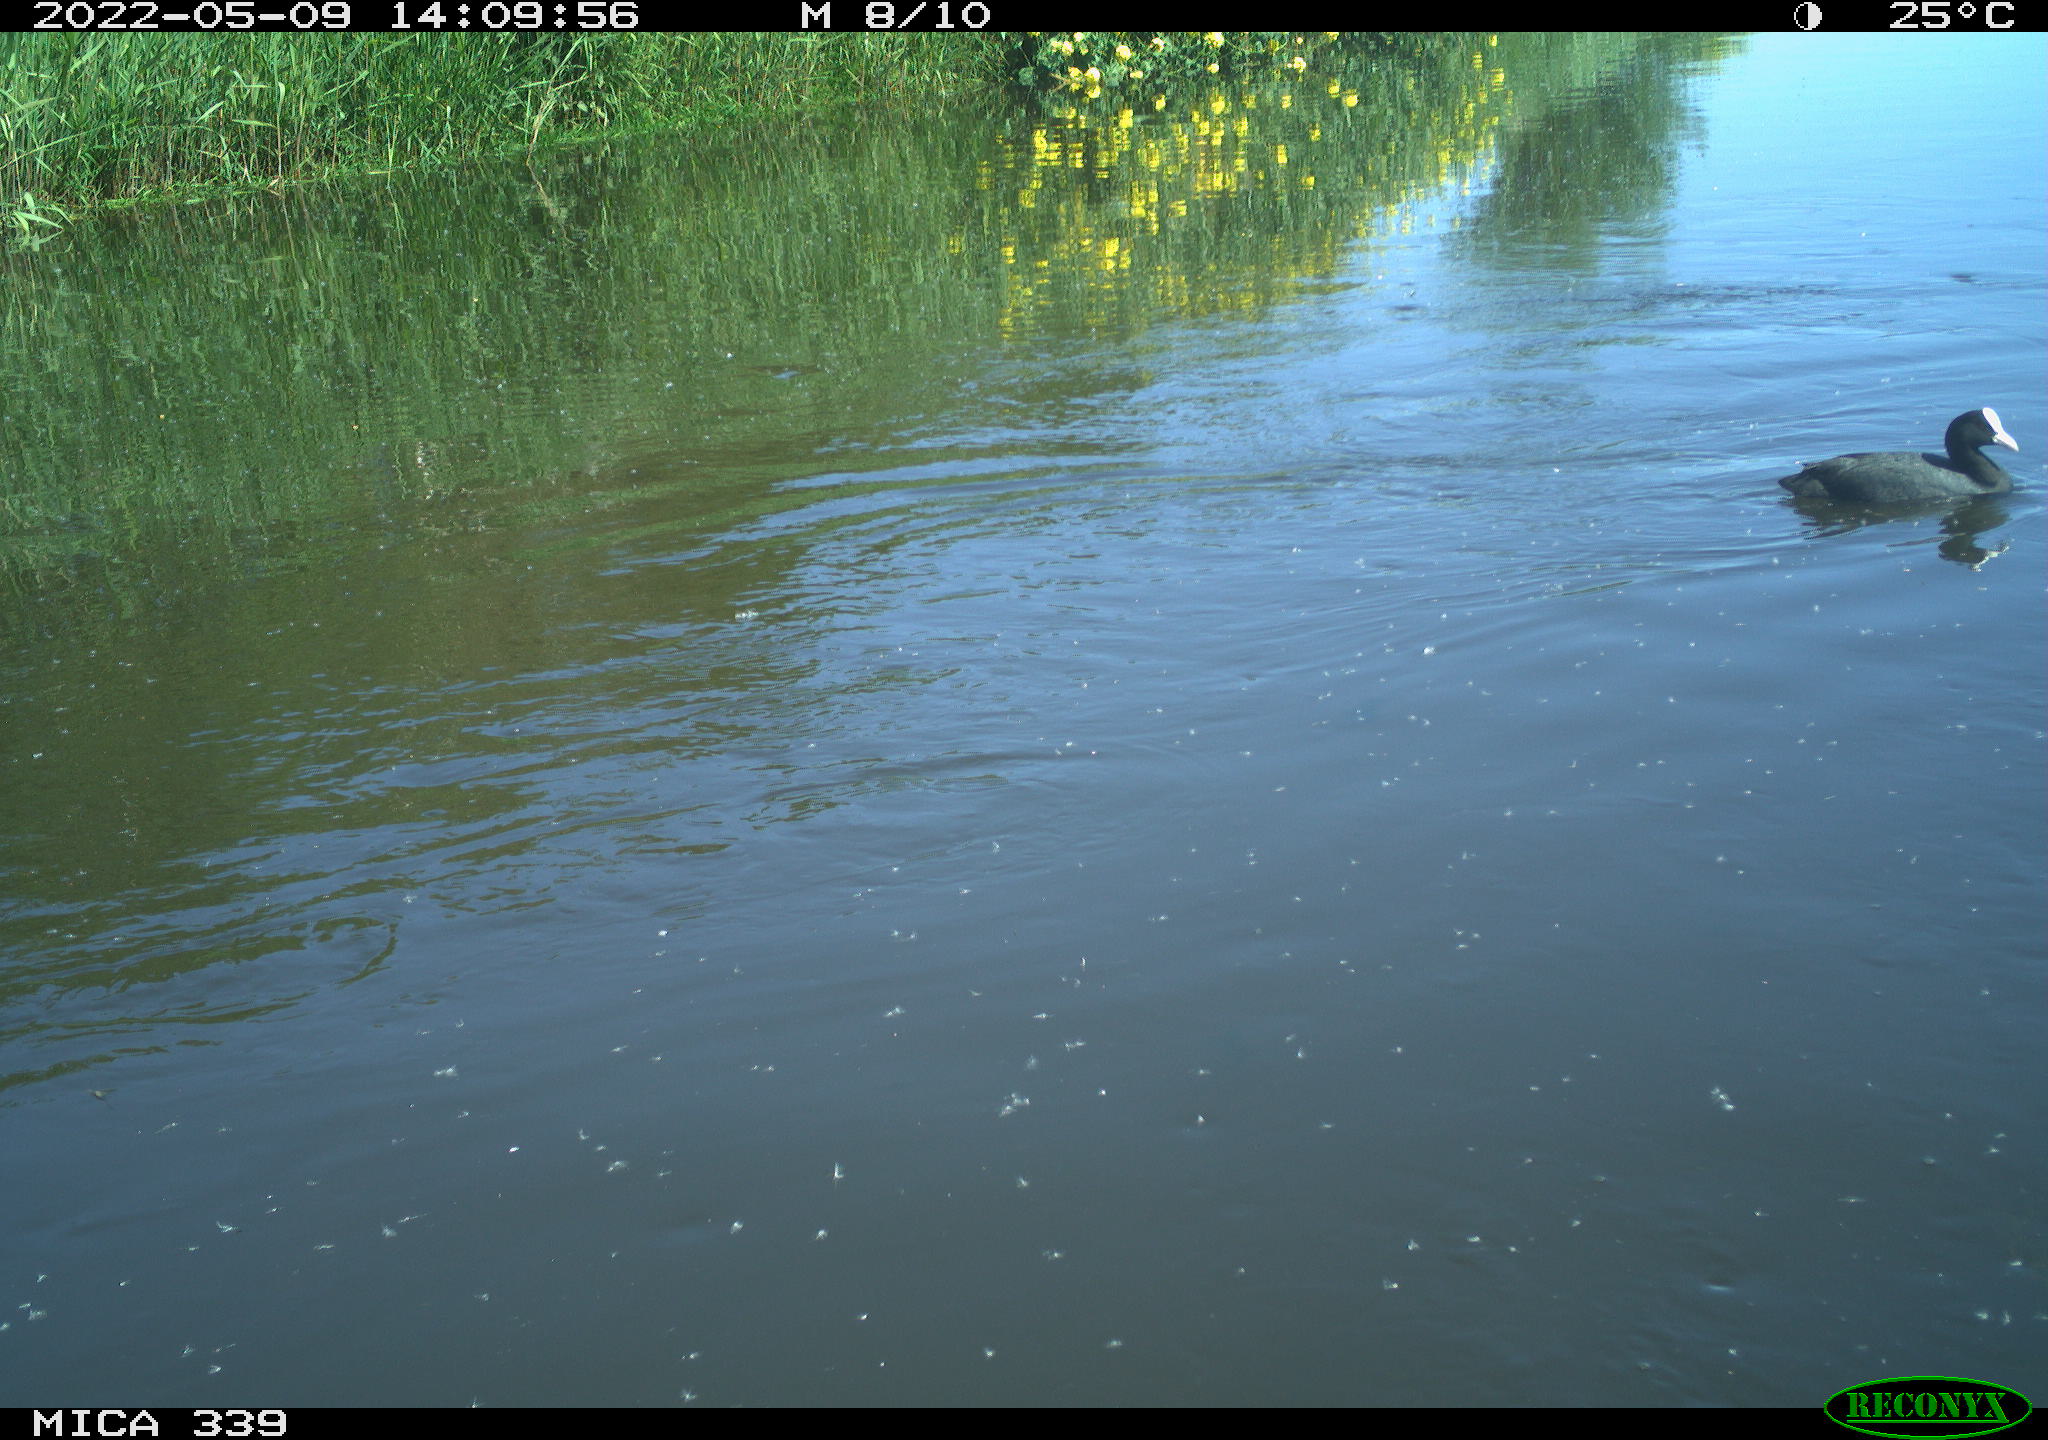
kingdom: Animalia
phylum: Chordata
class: Aves
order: Gruiformes
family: Rallidae
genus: Fulica
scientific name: Fulica atra
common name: Eurasian coot
